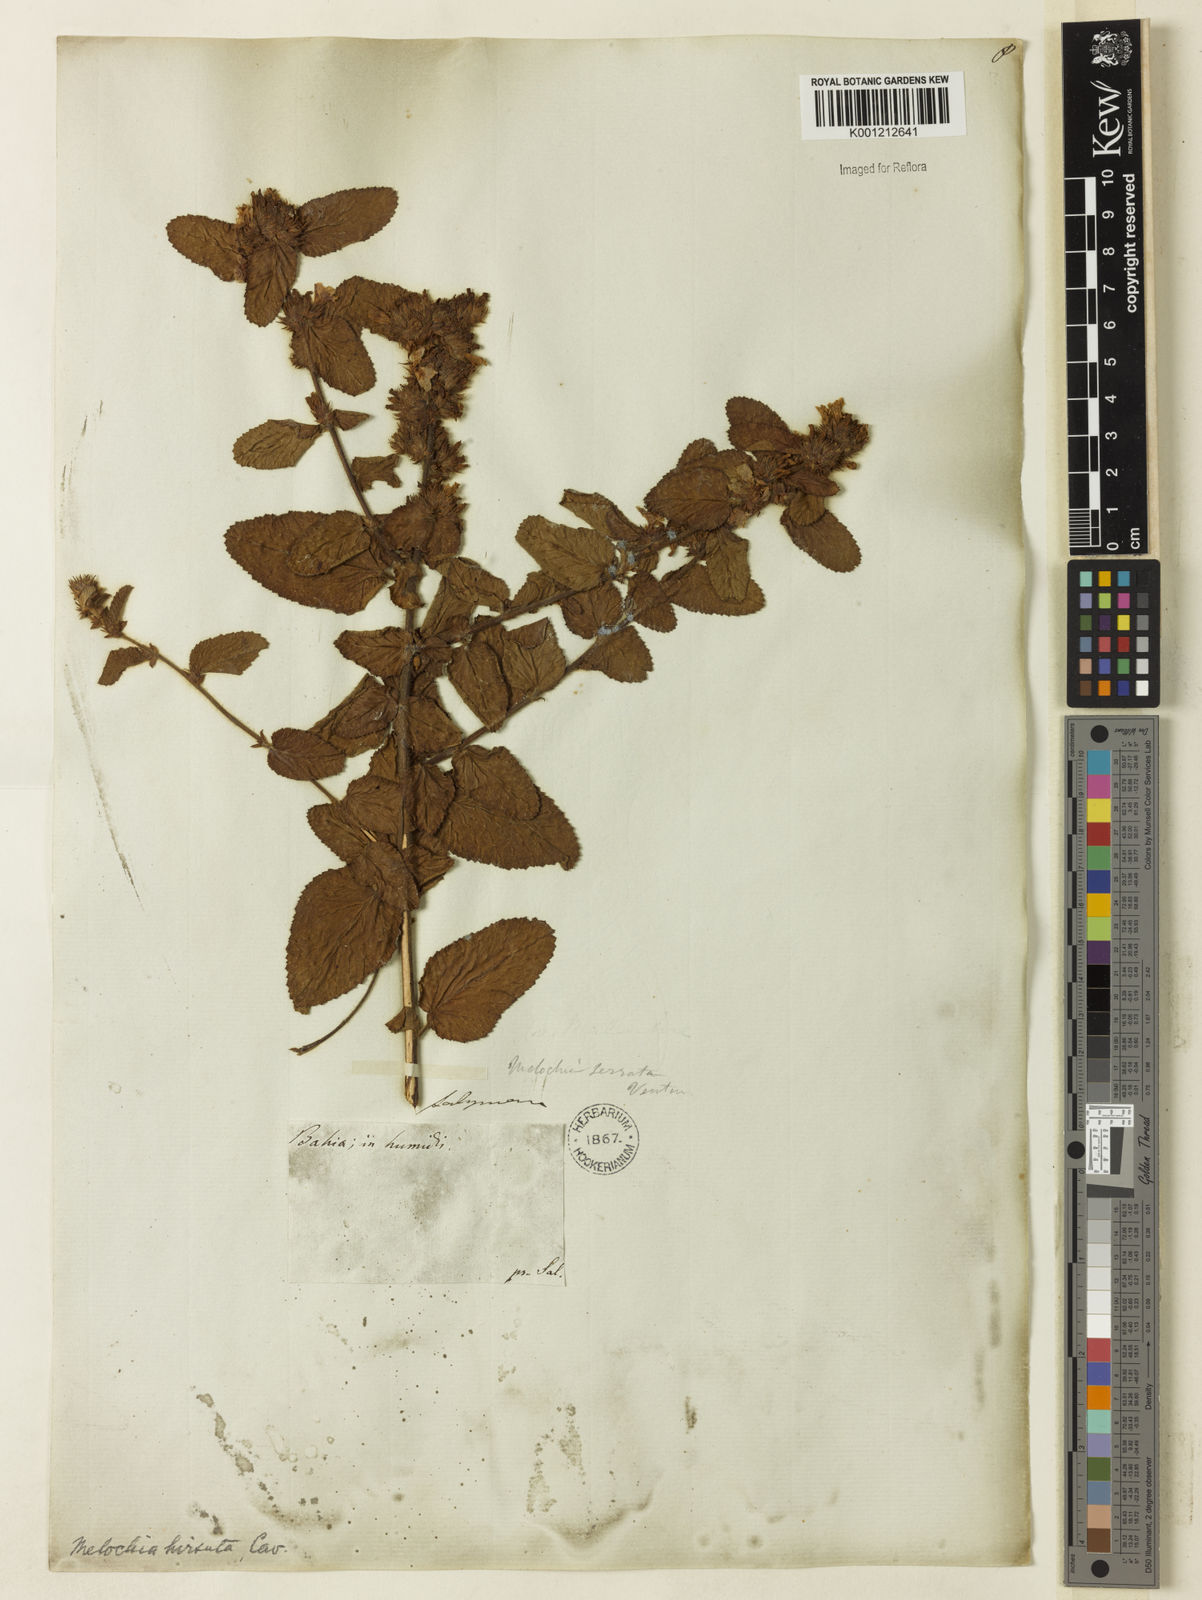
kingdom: Plantae
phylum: Tracheophyta
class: Magnoliopsida
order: Malvales
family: Malvaceae
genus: Melochia
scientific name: Melochia spicata
